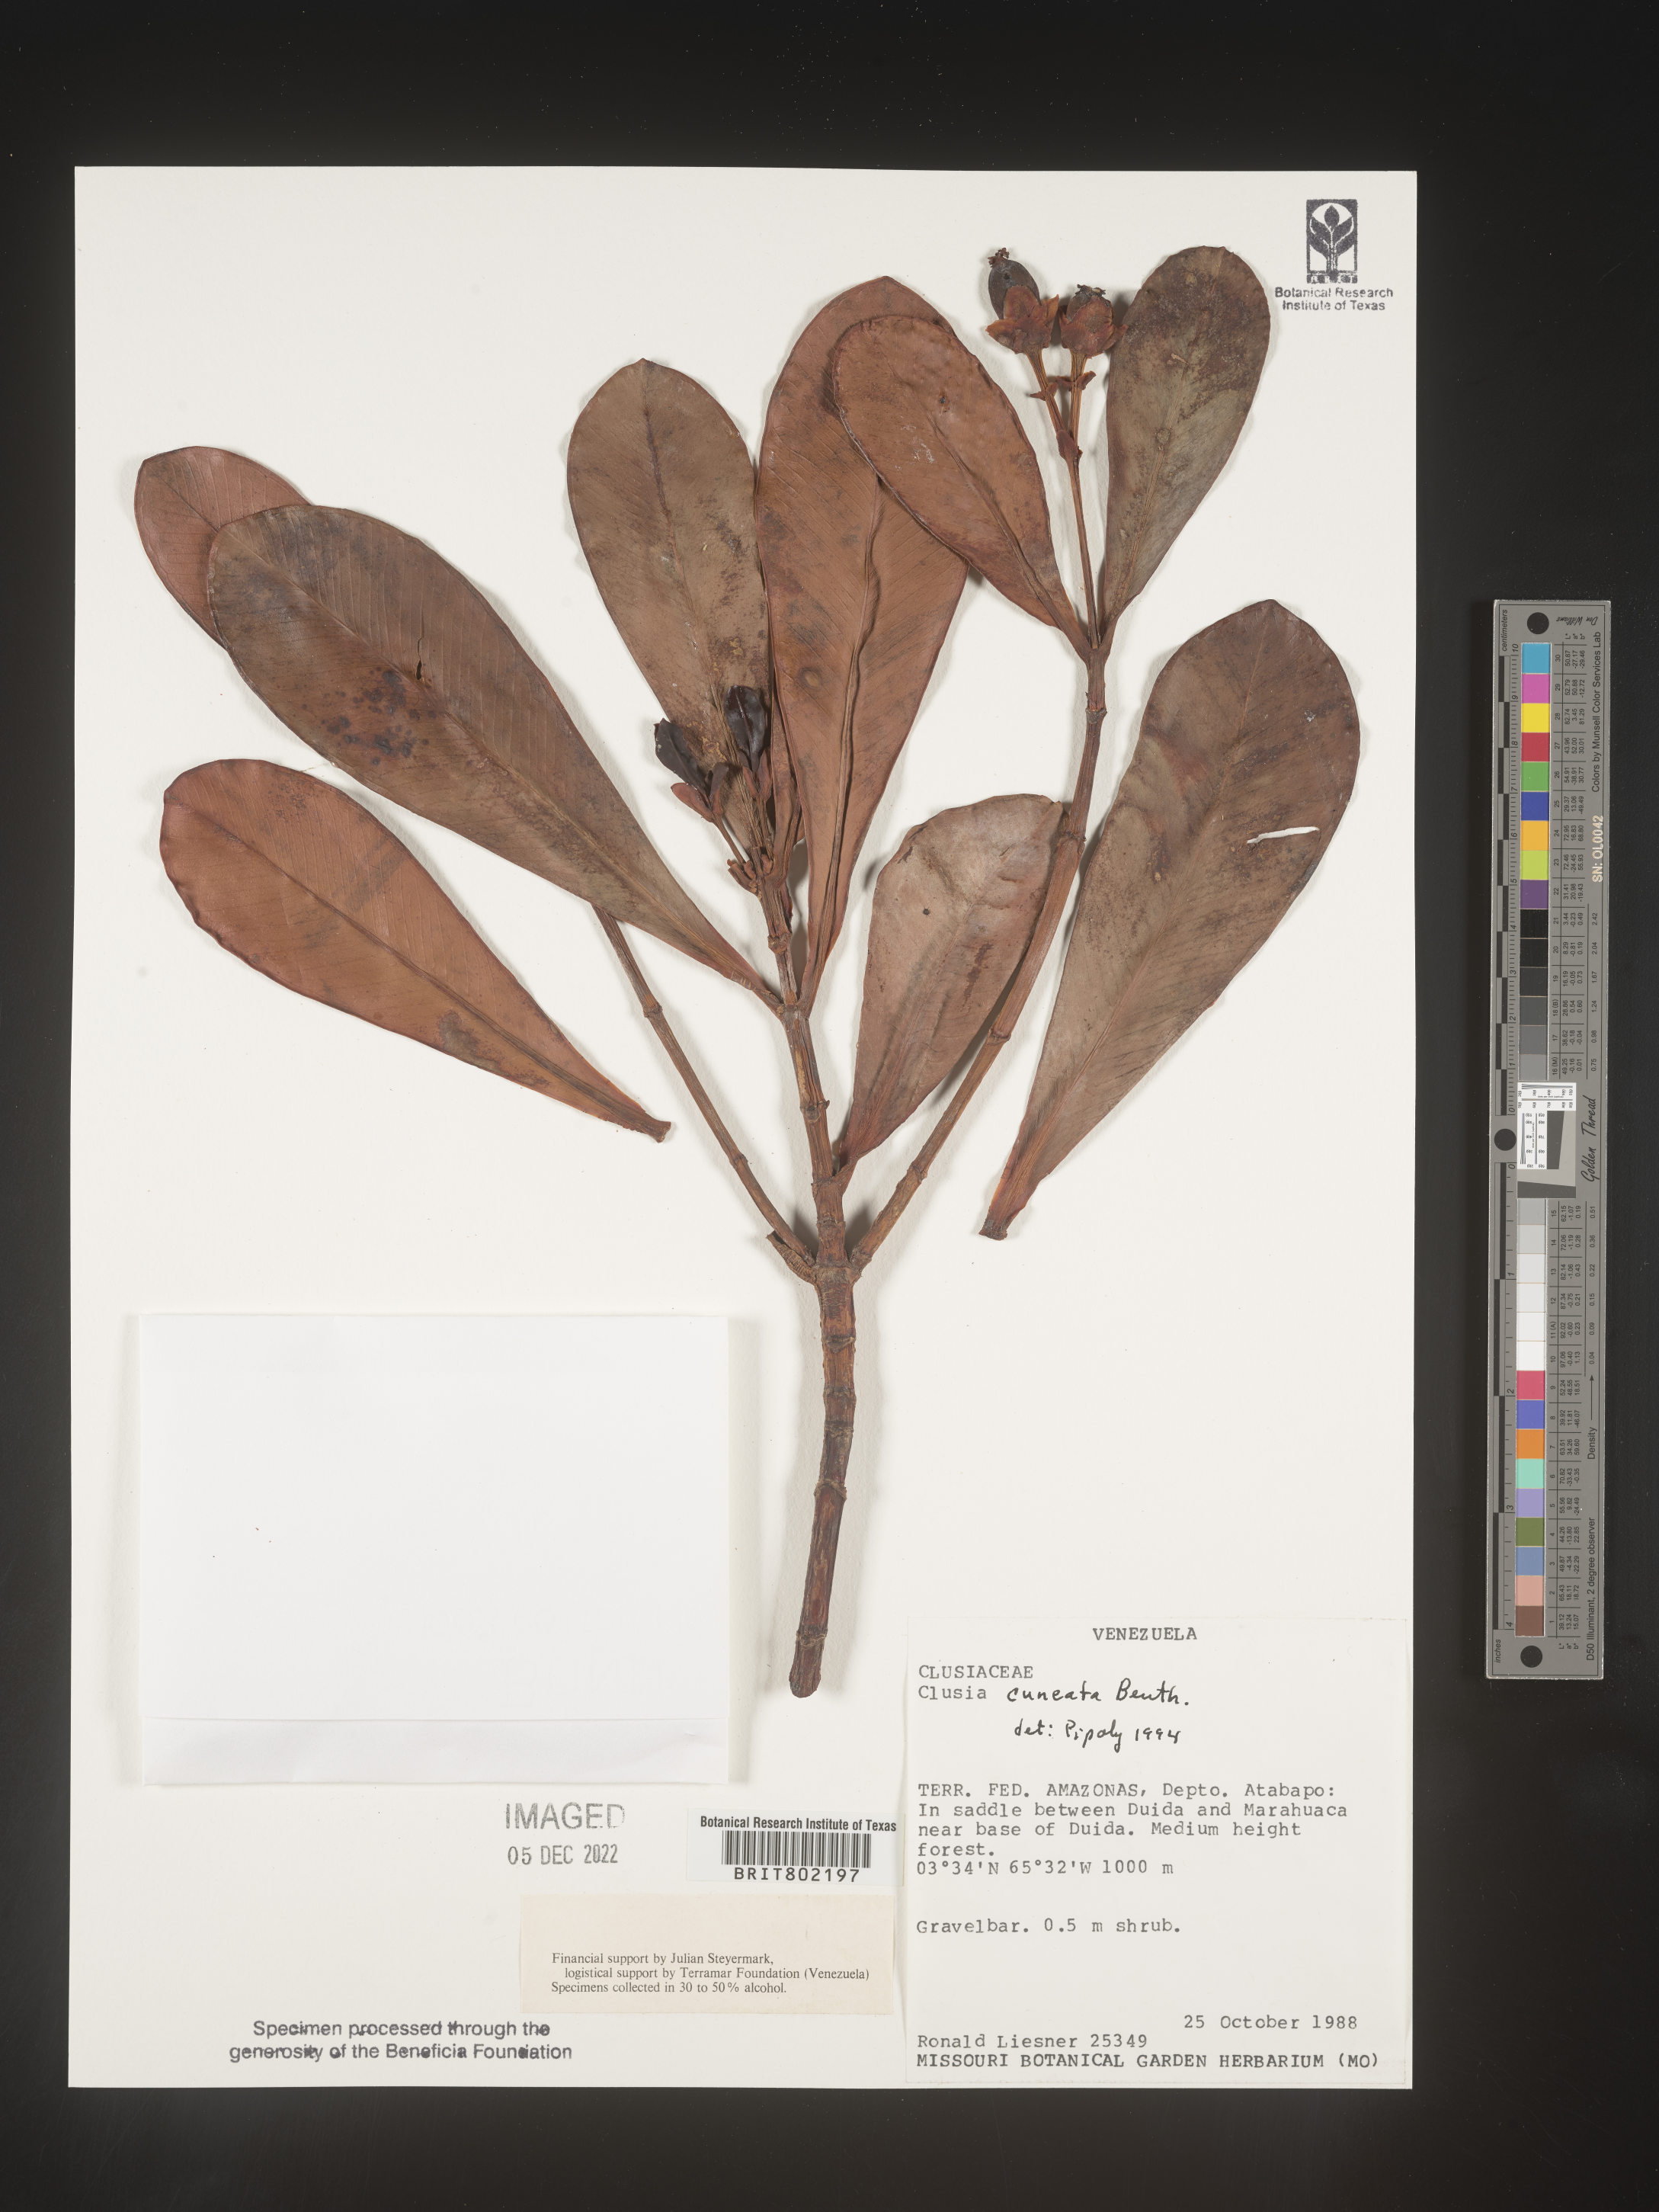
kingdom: Plantae
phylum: Tracheophyta
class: Magnoliopsida
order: Malpighiales
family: Clusiaceae
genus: Clusia
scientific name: Clusia
